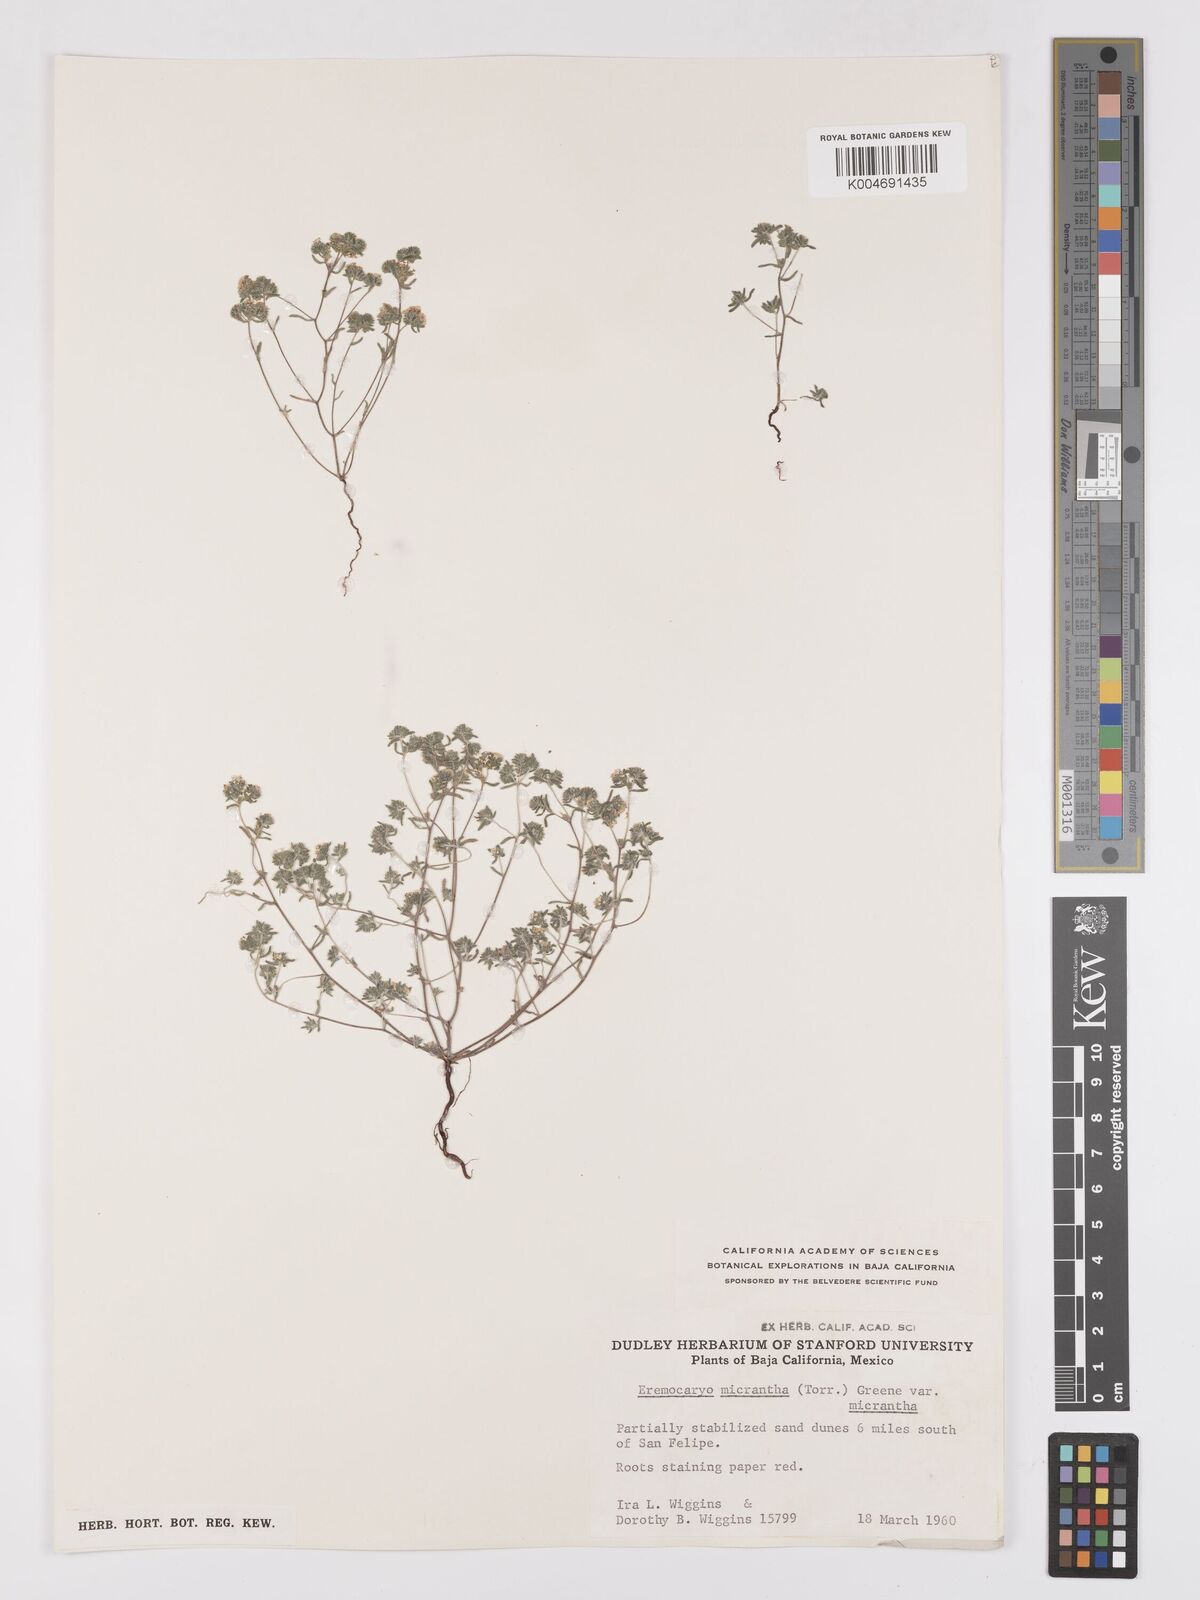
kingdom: Plantae
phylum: Tracheophyta
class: Magnoliopsida
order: Boraginales
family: Boraginaceae
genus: Eremocarya
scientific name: Eremocarya micrantha
